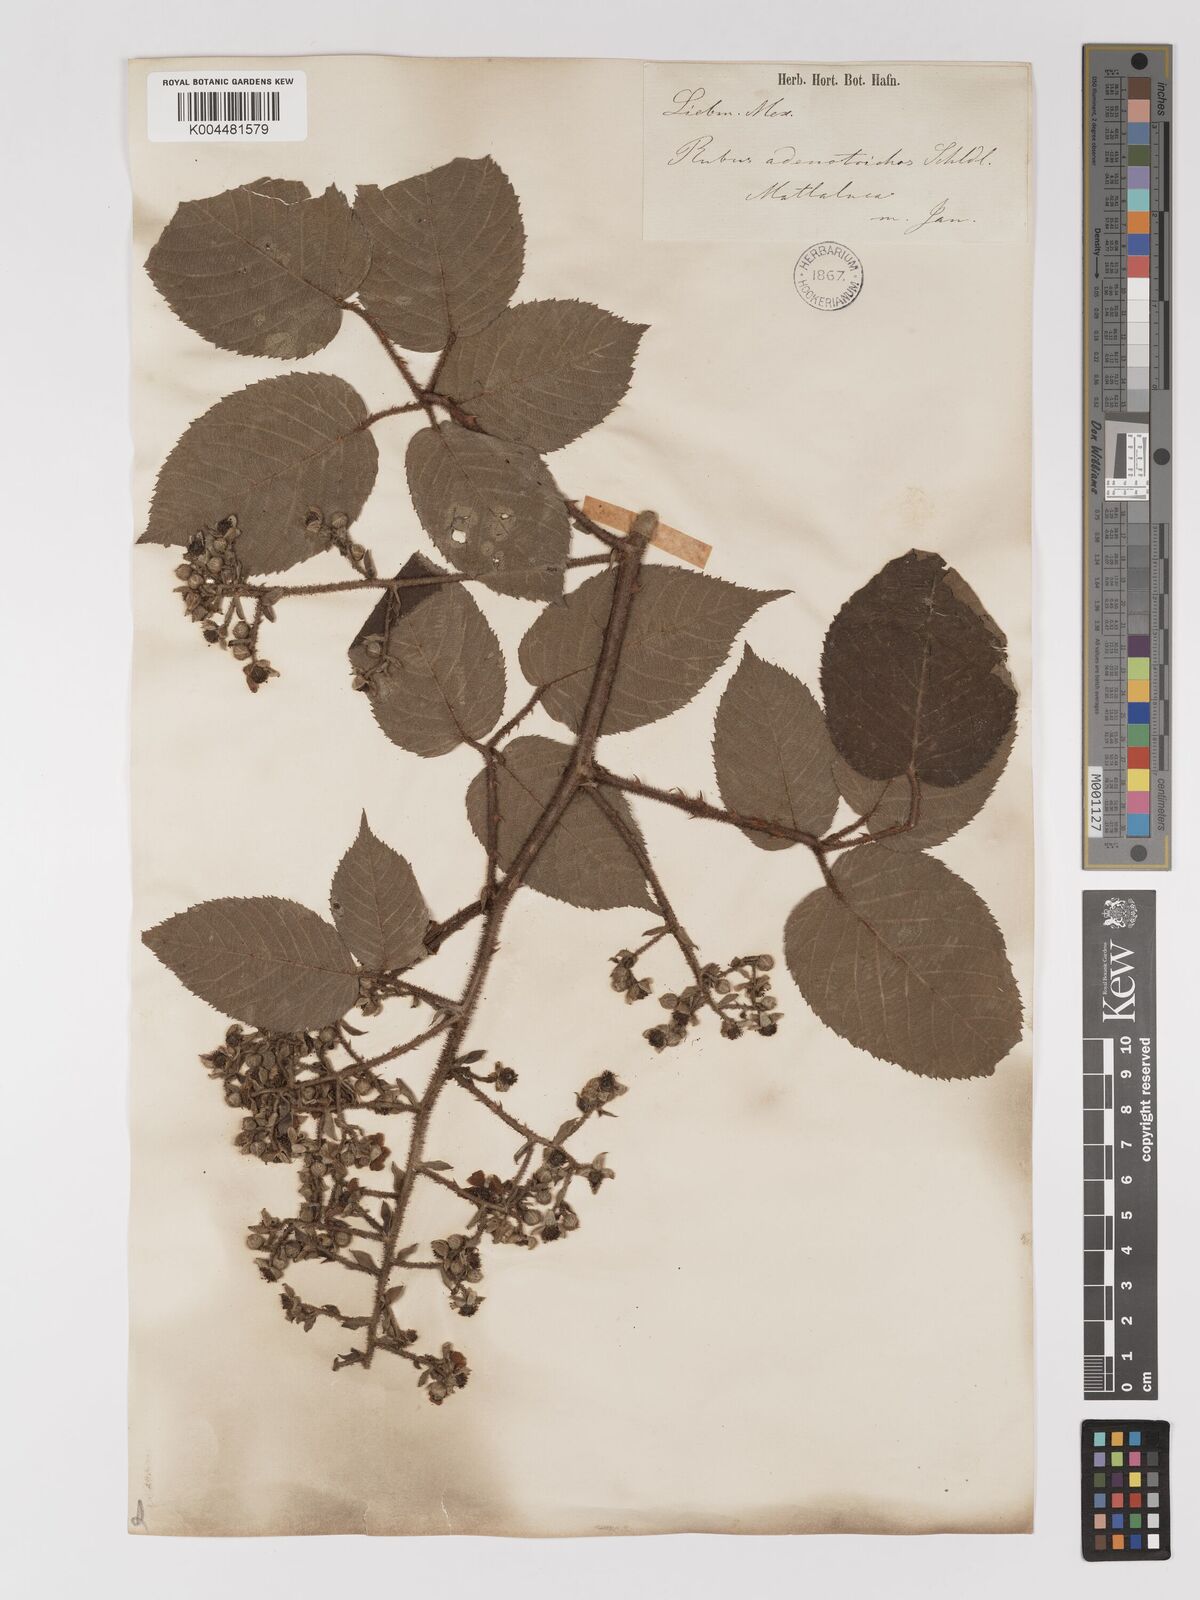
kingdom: Plantae
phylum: Tracheophyta
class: Magnoliopsida
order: Rosales
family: Rosaceae
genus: Rubus
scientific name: Rubus adenotrichos
